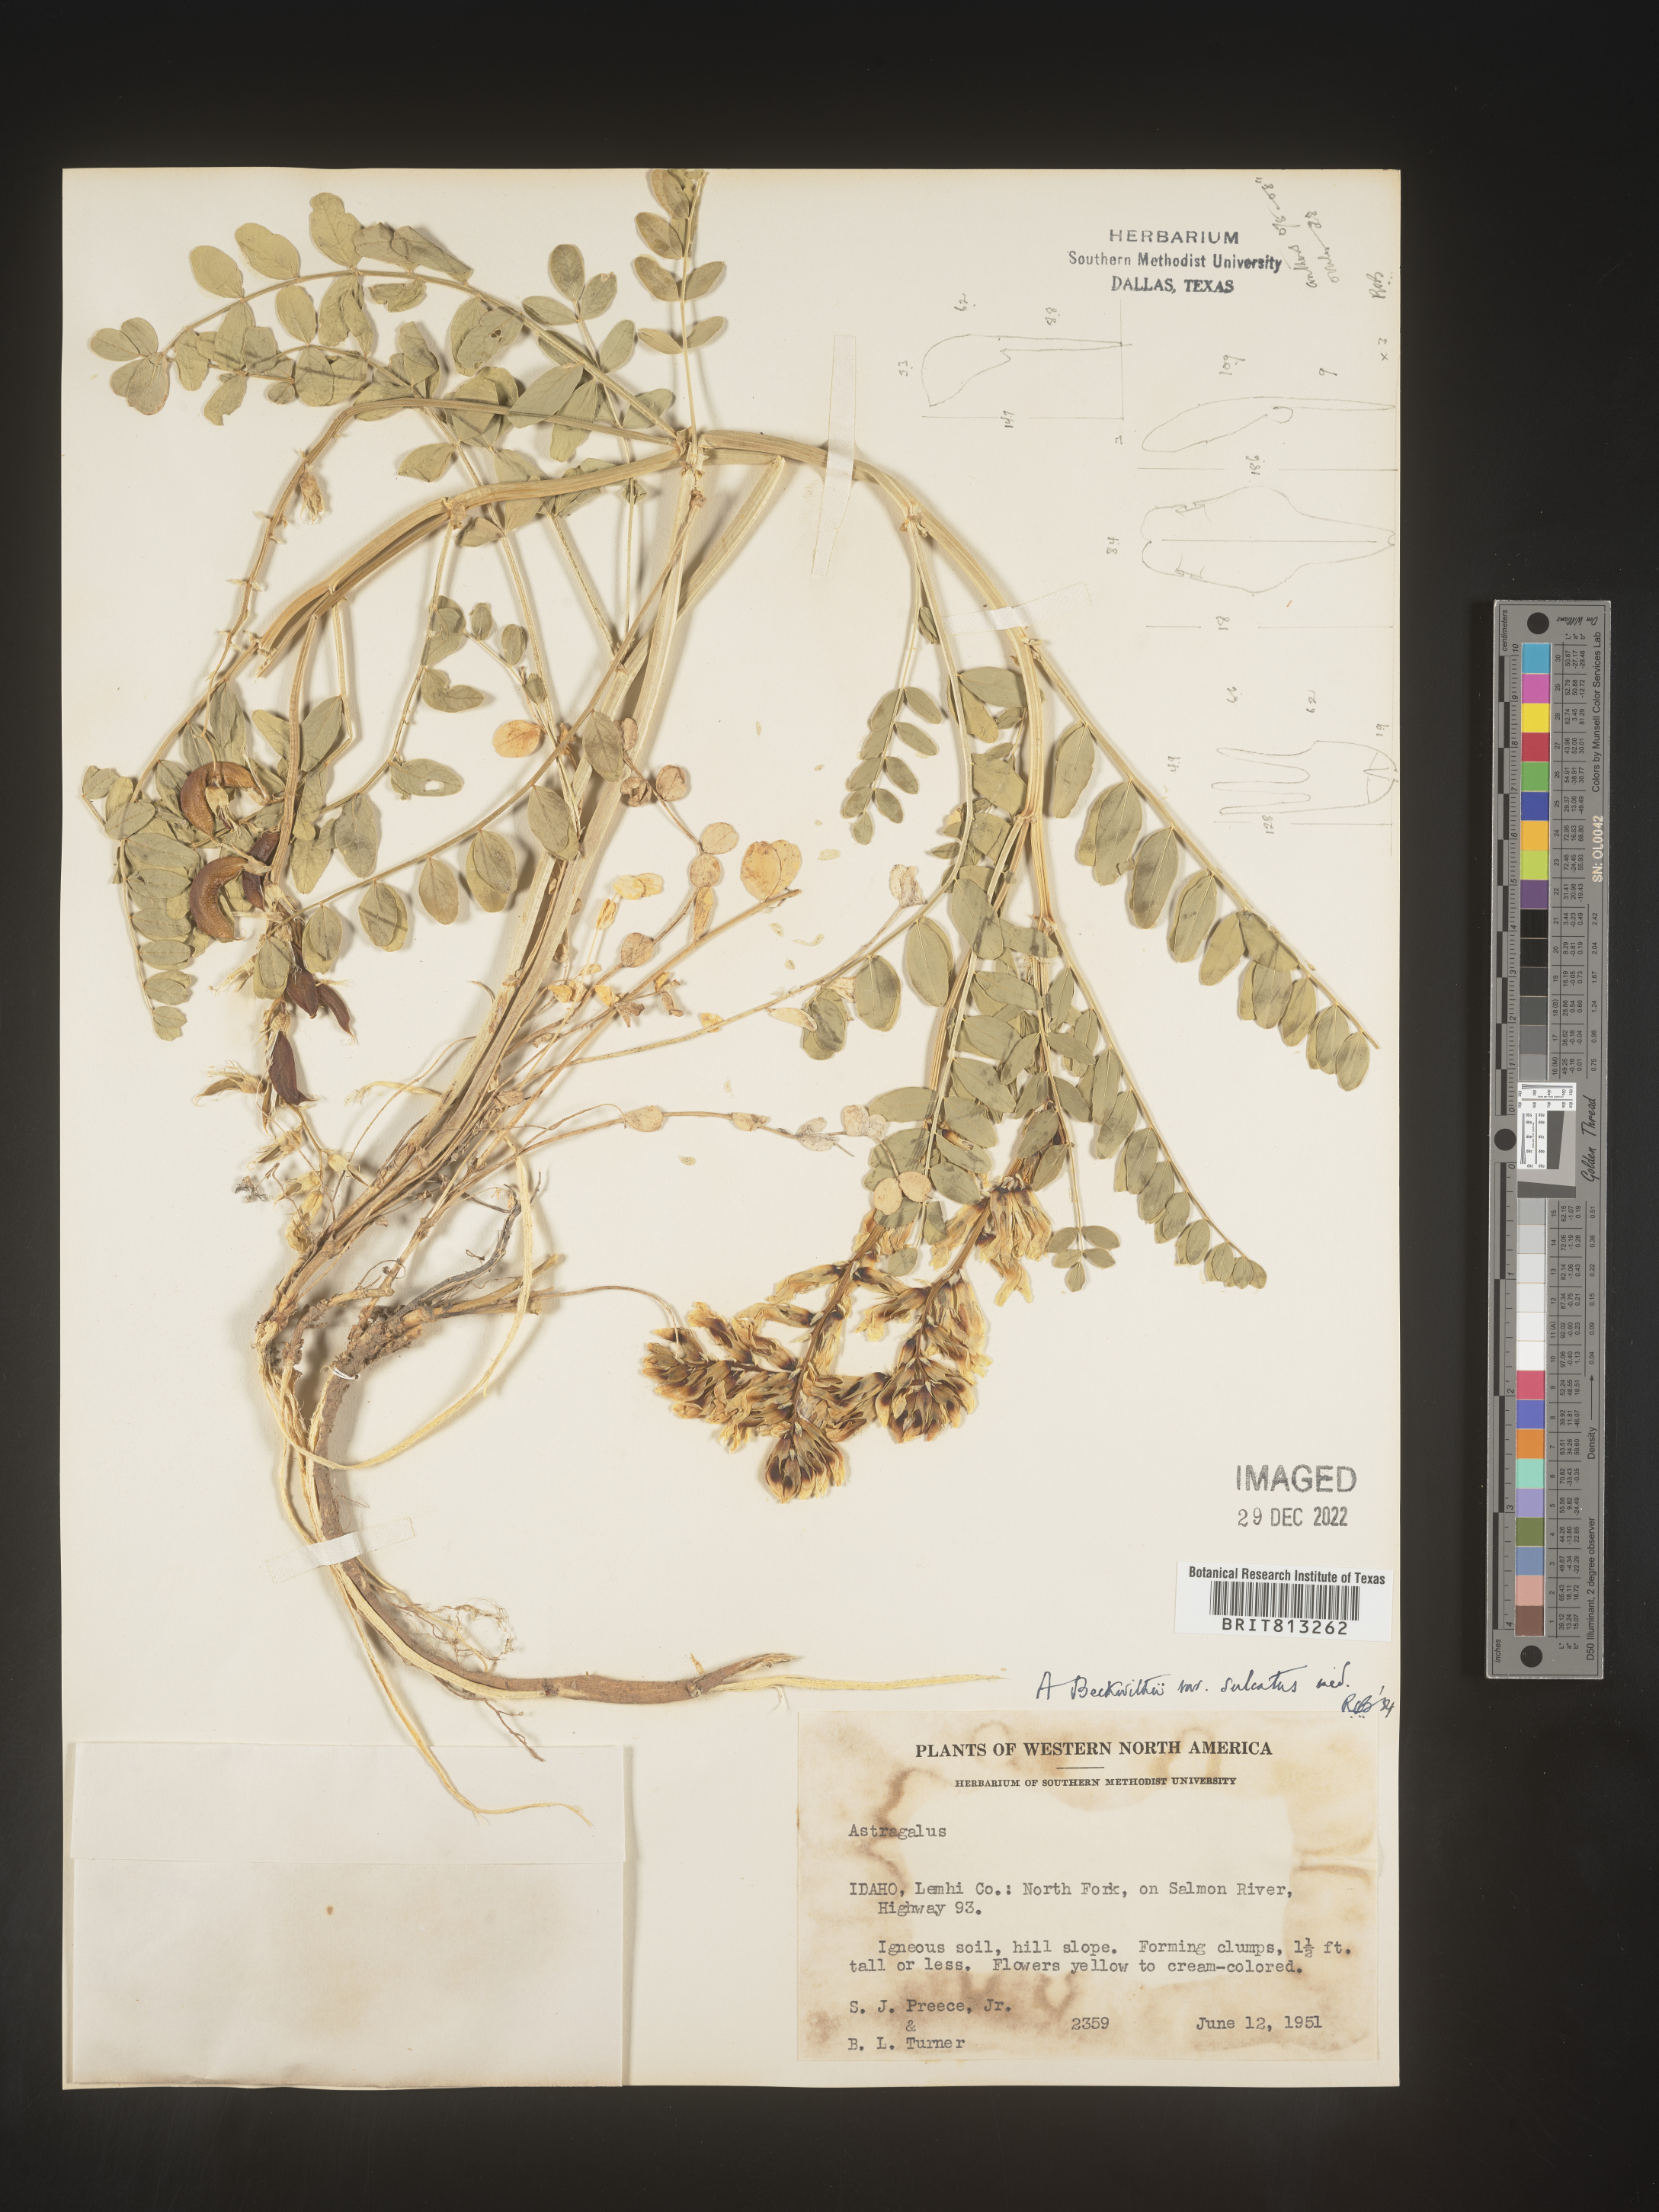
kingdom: Plantae
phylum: Tracheophyta
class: Magnoliopsida
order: Fabales
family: Fabaceae
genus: Astragalus
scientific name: Astragalus
